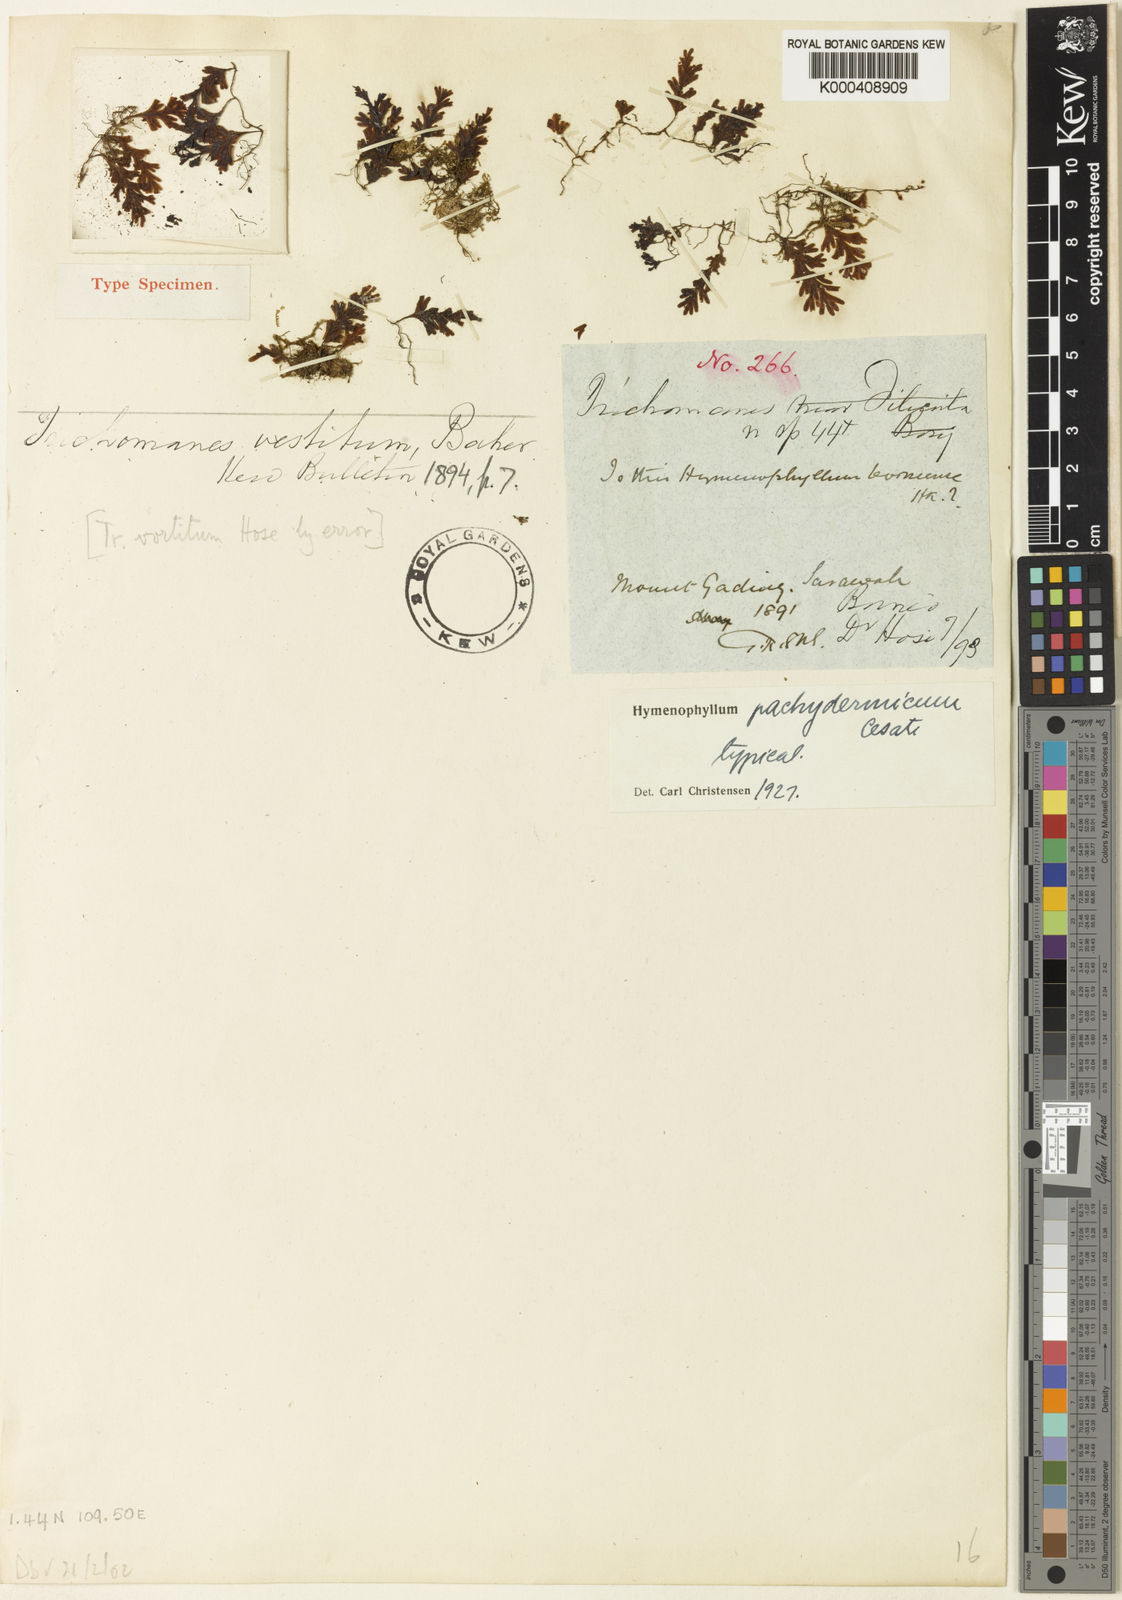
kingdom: Plantae
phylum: Tracheophyta
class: Polypodiopsida
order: Hymenophyllales
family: Hymenophyllaceae
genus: Hymenophyllum
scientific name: Hymenophyllum pachydermicum
